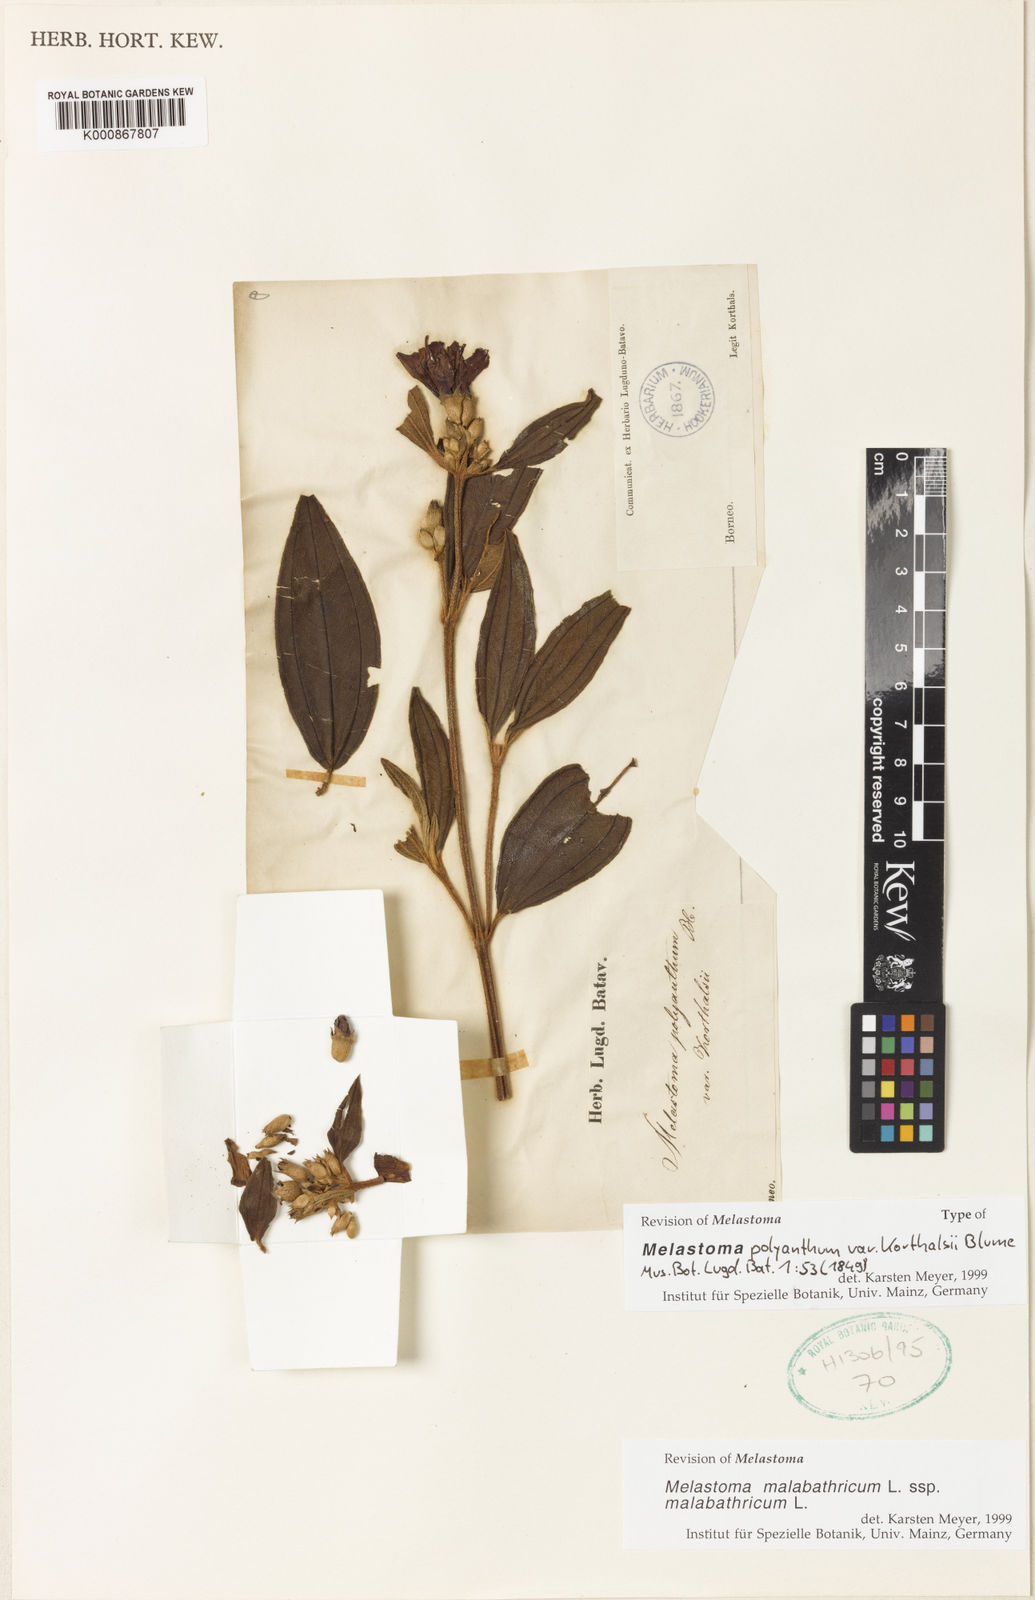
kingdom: Plantae
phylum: Tracheophyta
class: Magnoliopsida
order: Myrtales
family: Melastomataceae
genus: Melastoma
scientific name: Melastoma malabathricum
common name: Indian-rhododendron
